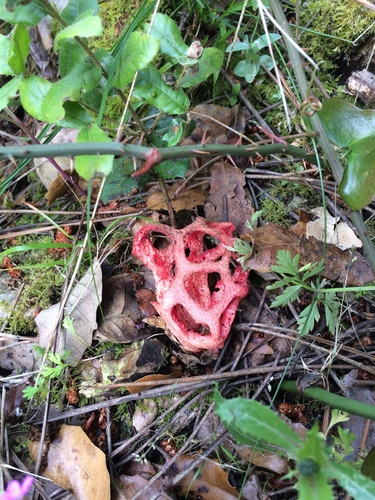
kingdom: Fungi
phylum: Basidiomycota
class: Agaricomycetes
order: Phallales
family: Phallaceae
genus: Clathrus
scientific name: Clathrus ruber
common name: Red cage
